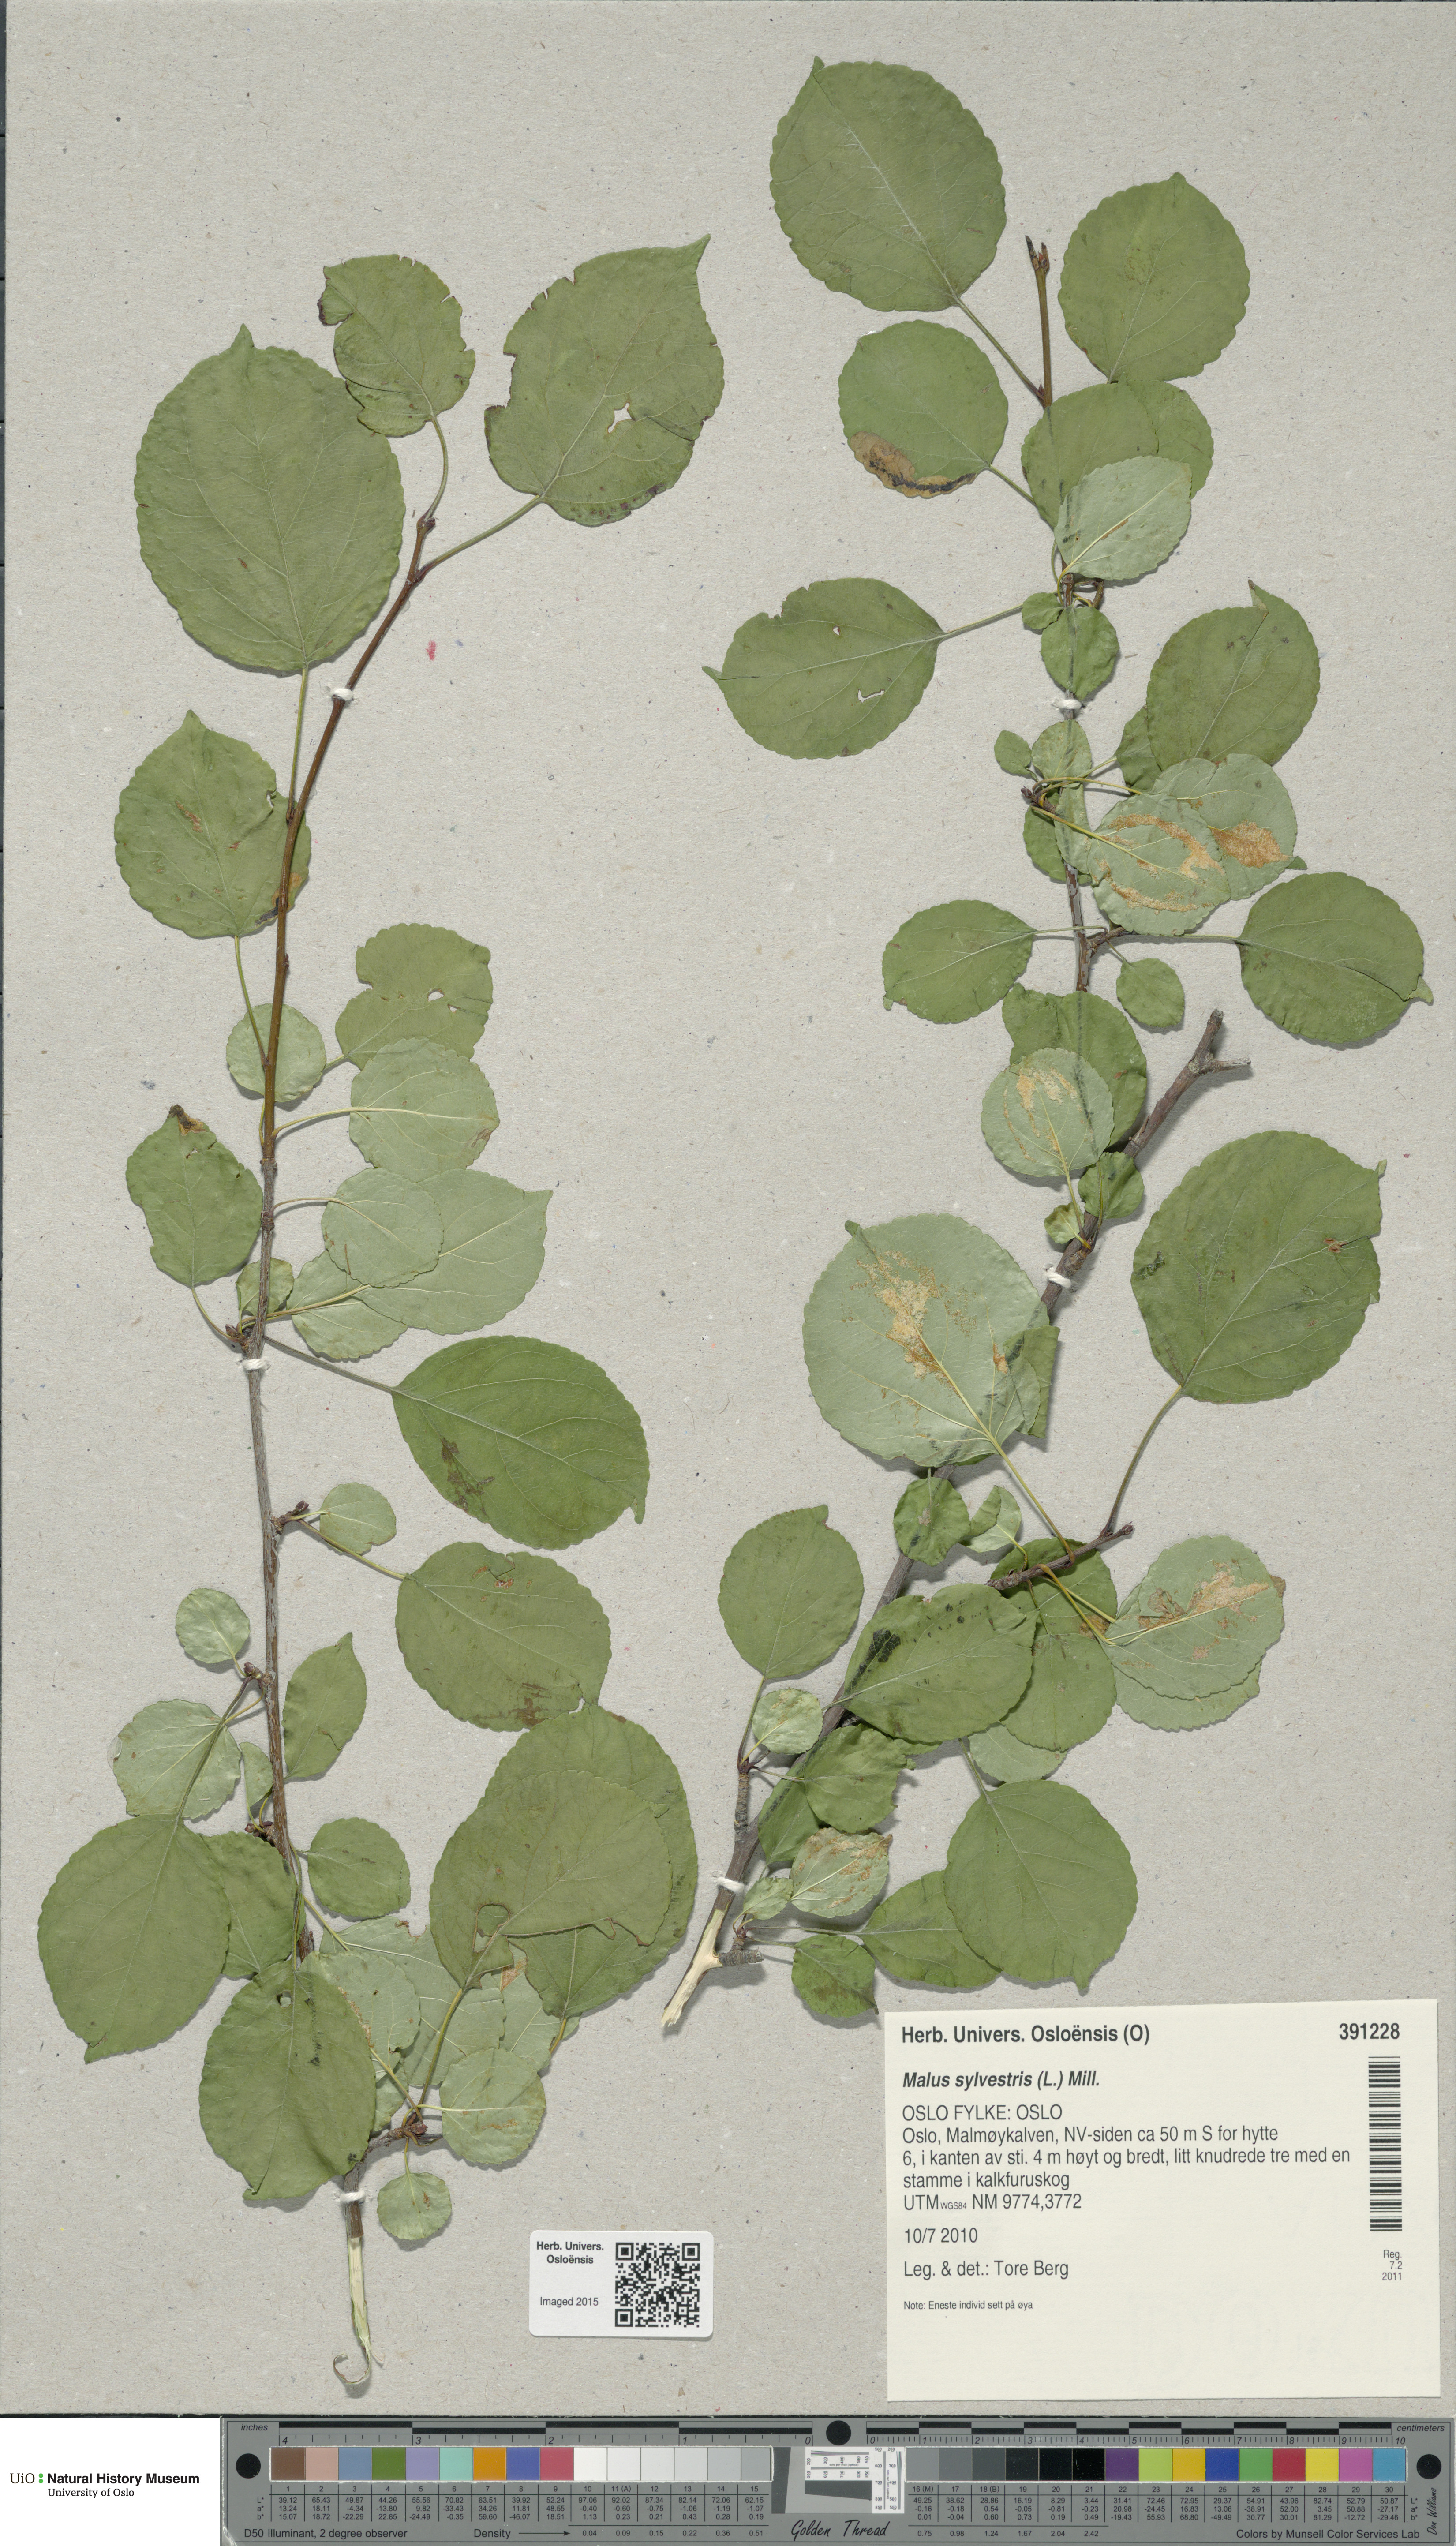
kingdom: Plantae
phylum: Tracheophyta
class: Magnoliopsida
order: Rosales
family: Rosaceae
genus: Malus
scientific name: Malus sylvestris
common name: Crab apple
